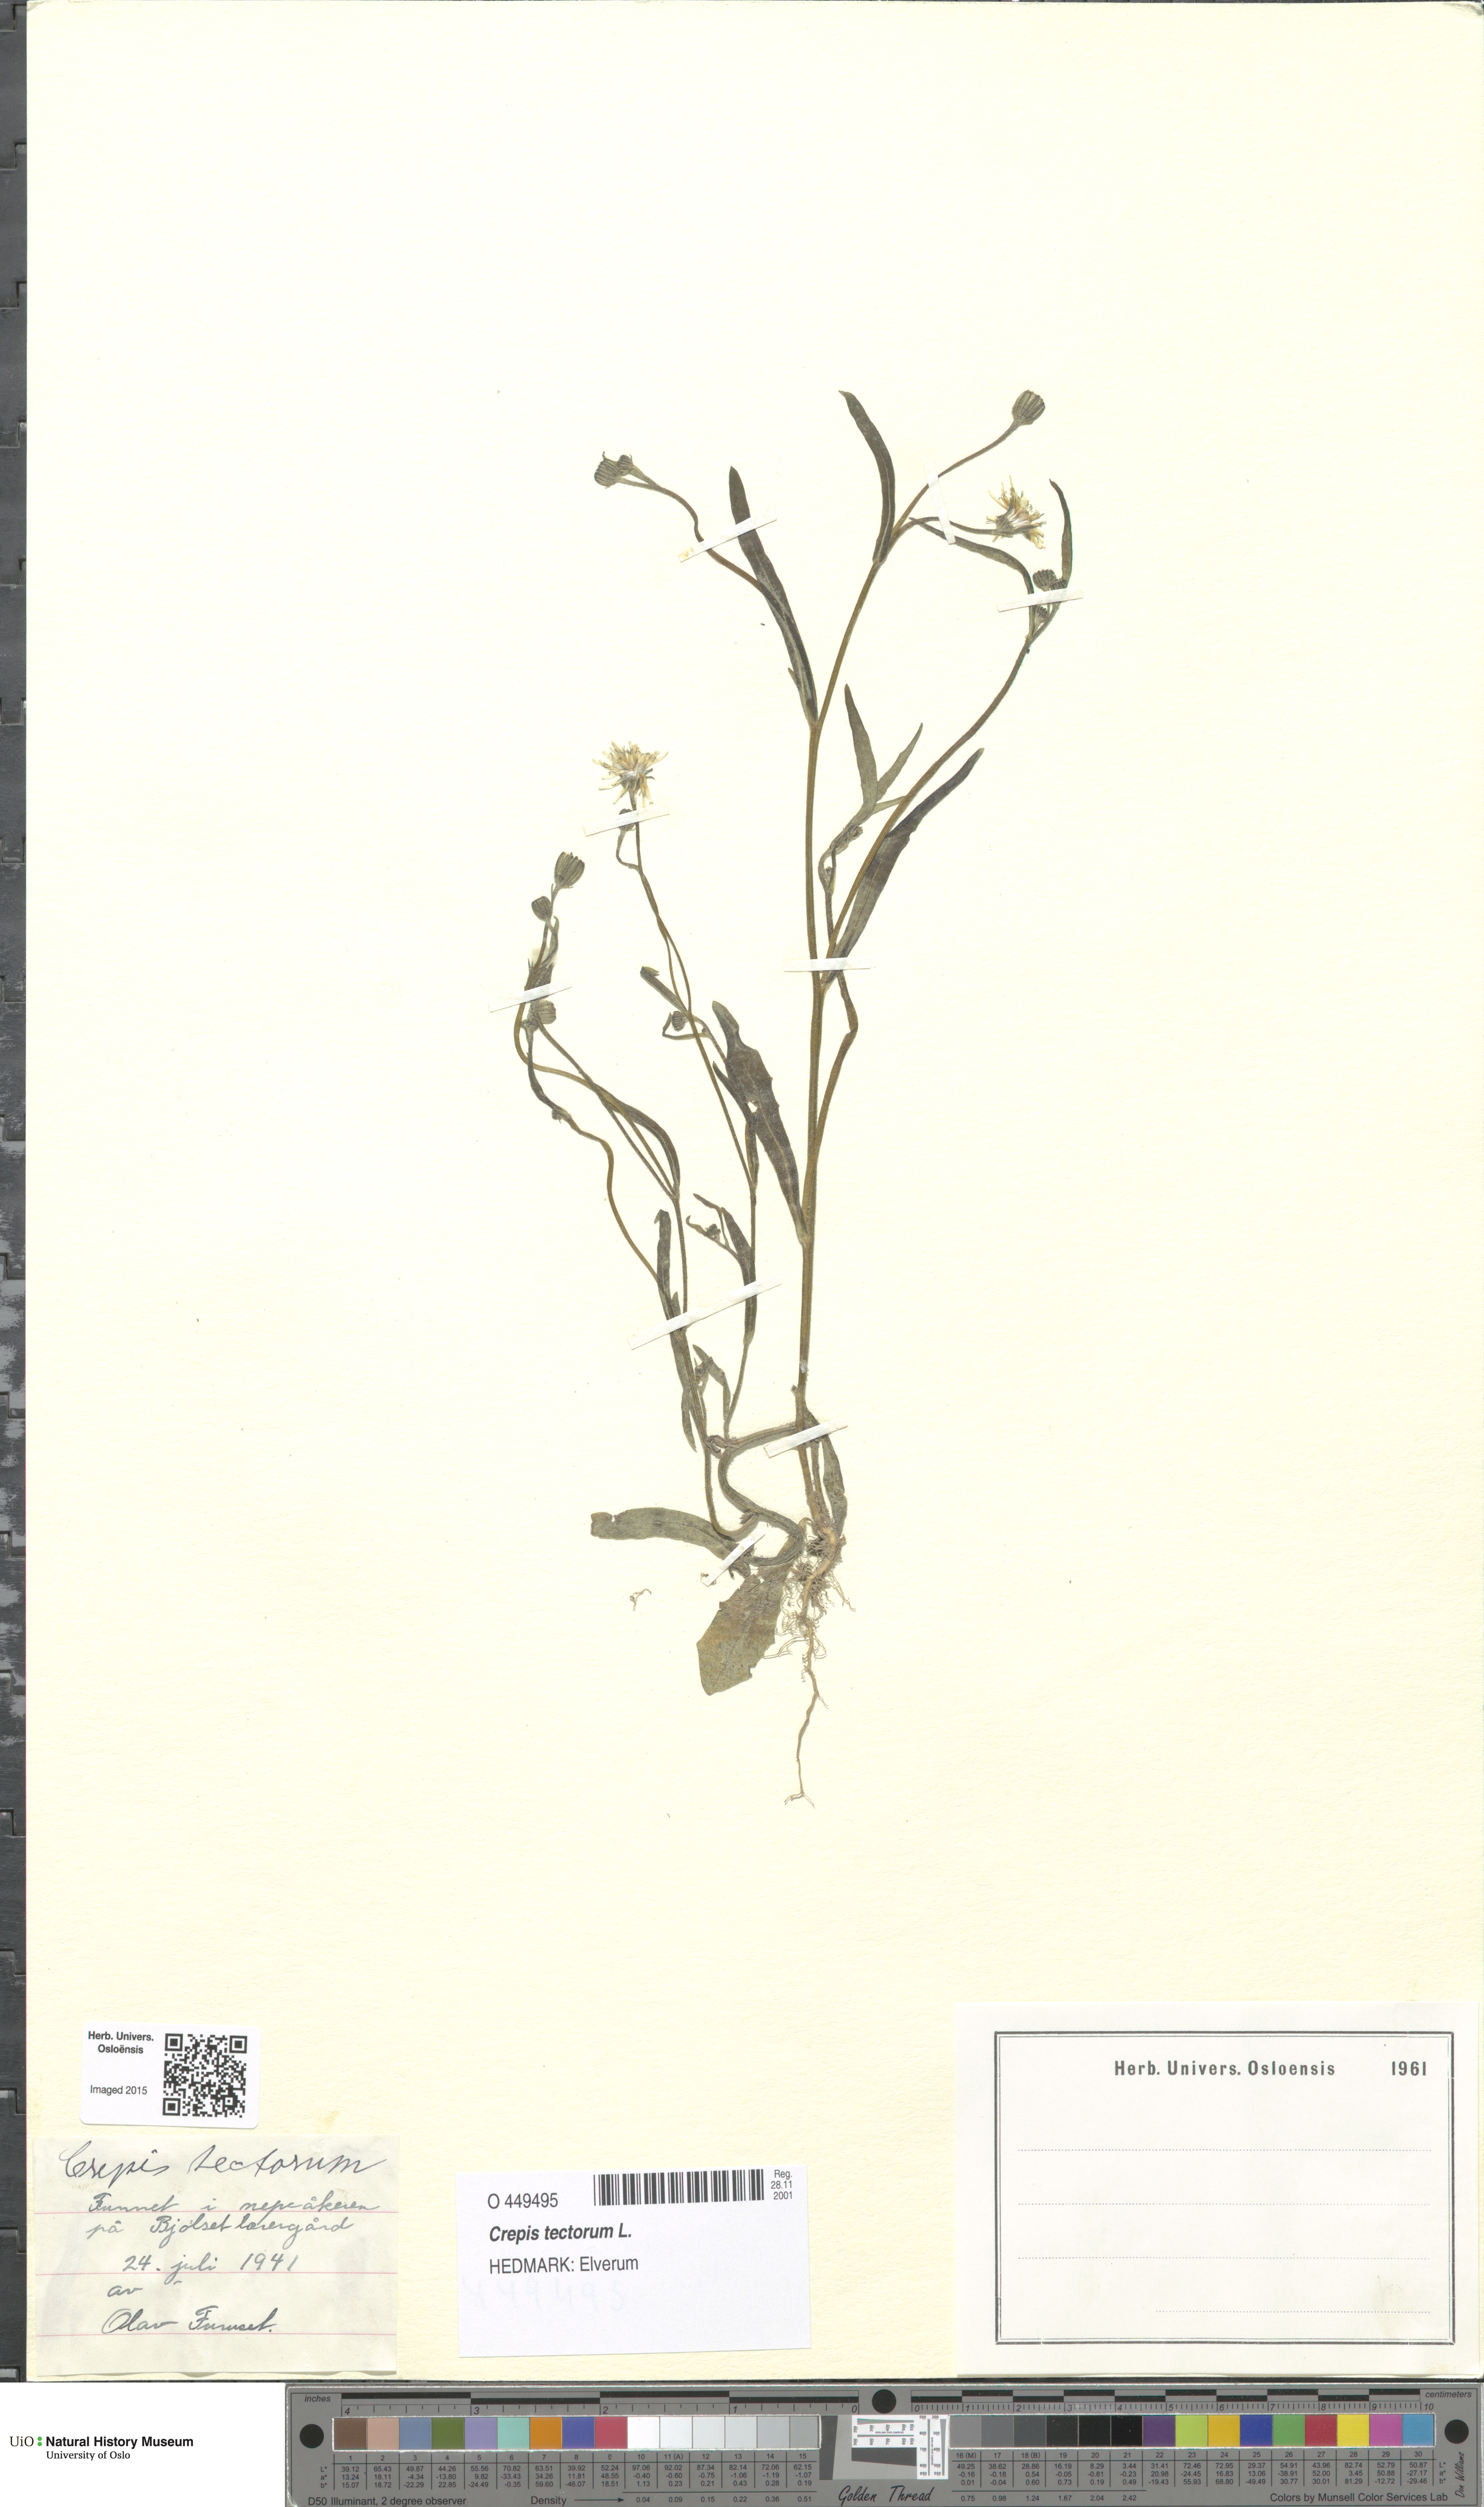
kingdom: Plantae
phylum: Tracheophyta
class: Magnoliopsida
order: Asterales
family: Asteraceae
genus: Crepis
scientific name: Crepis tectorum
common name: Narrow-leaved hawk's-beard
